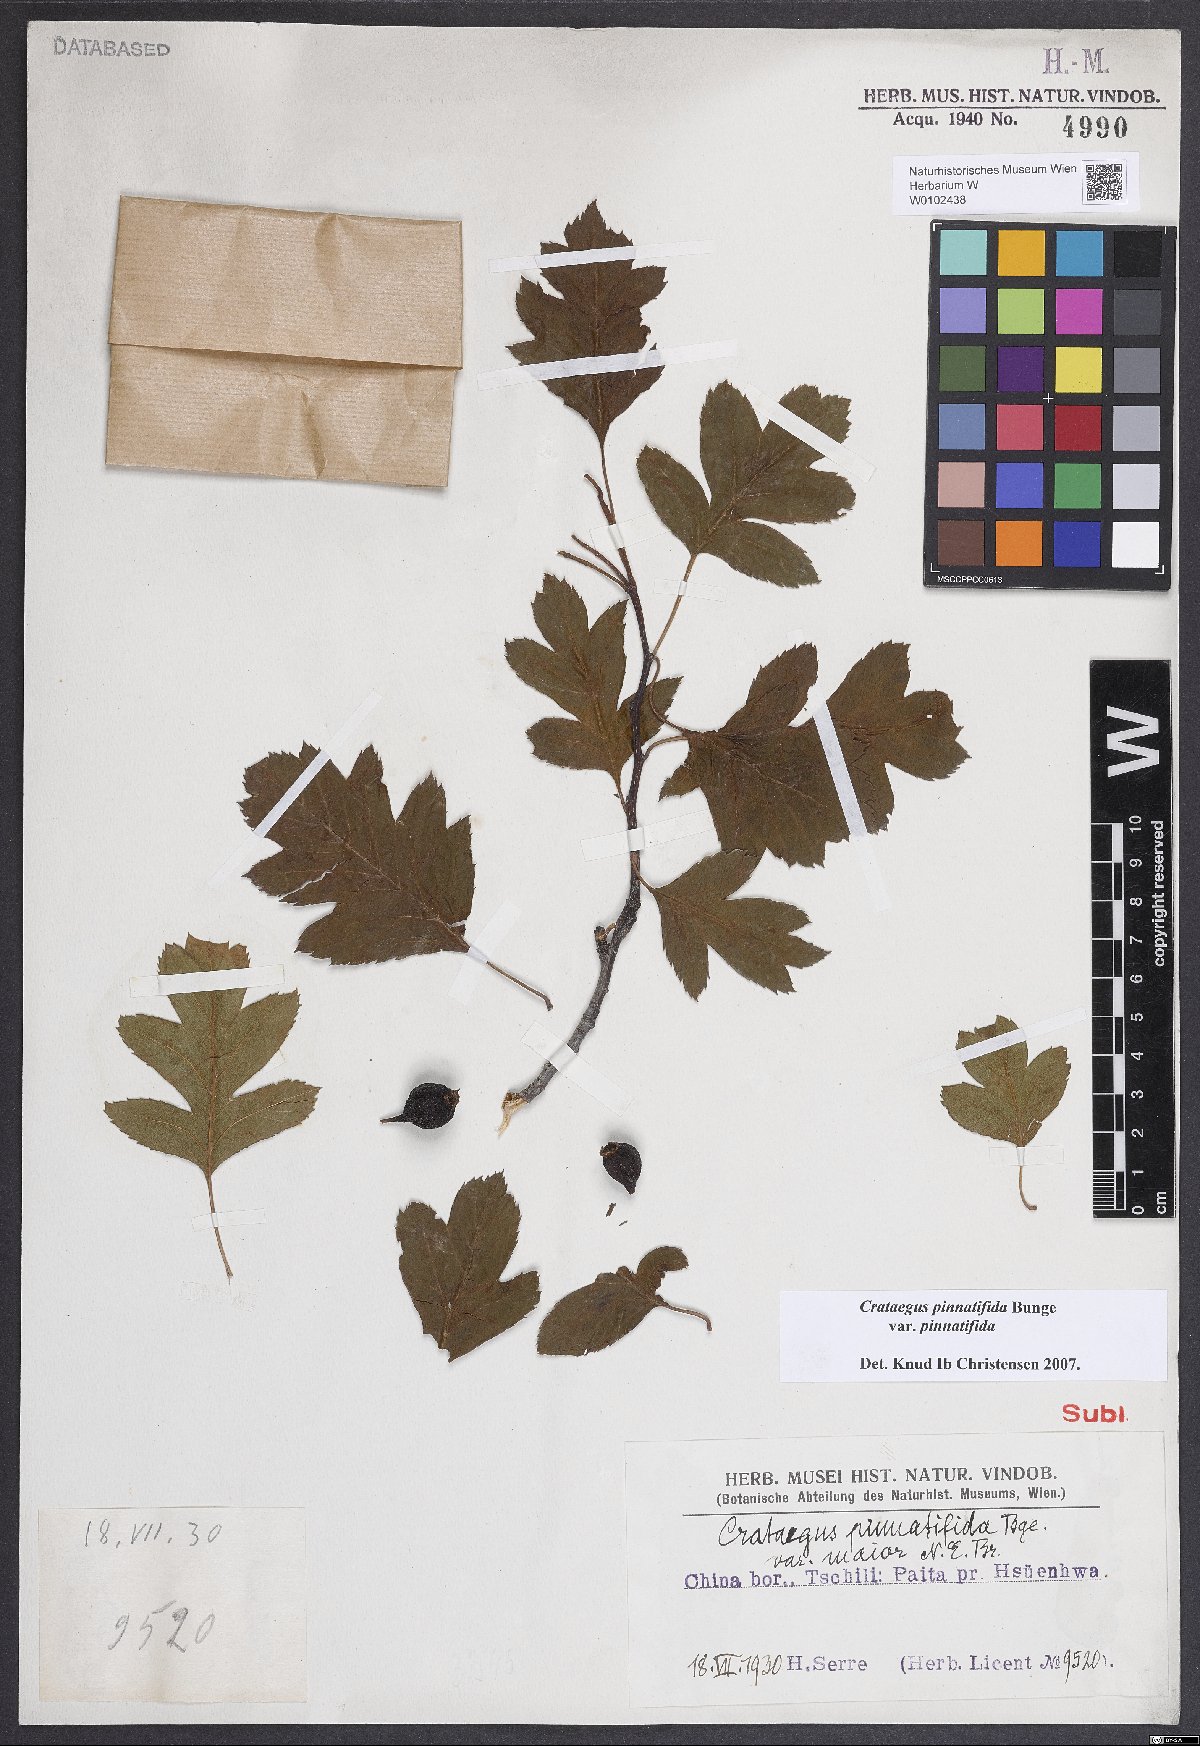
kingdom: Plantae
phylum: Tracheophyta
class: Magnoliopsida
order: Rosales
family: Rosaceae
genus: Crataegus
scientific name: Crataegus pinnatifida
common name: Chinese haw
